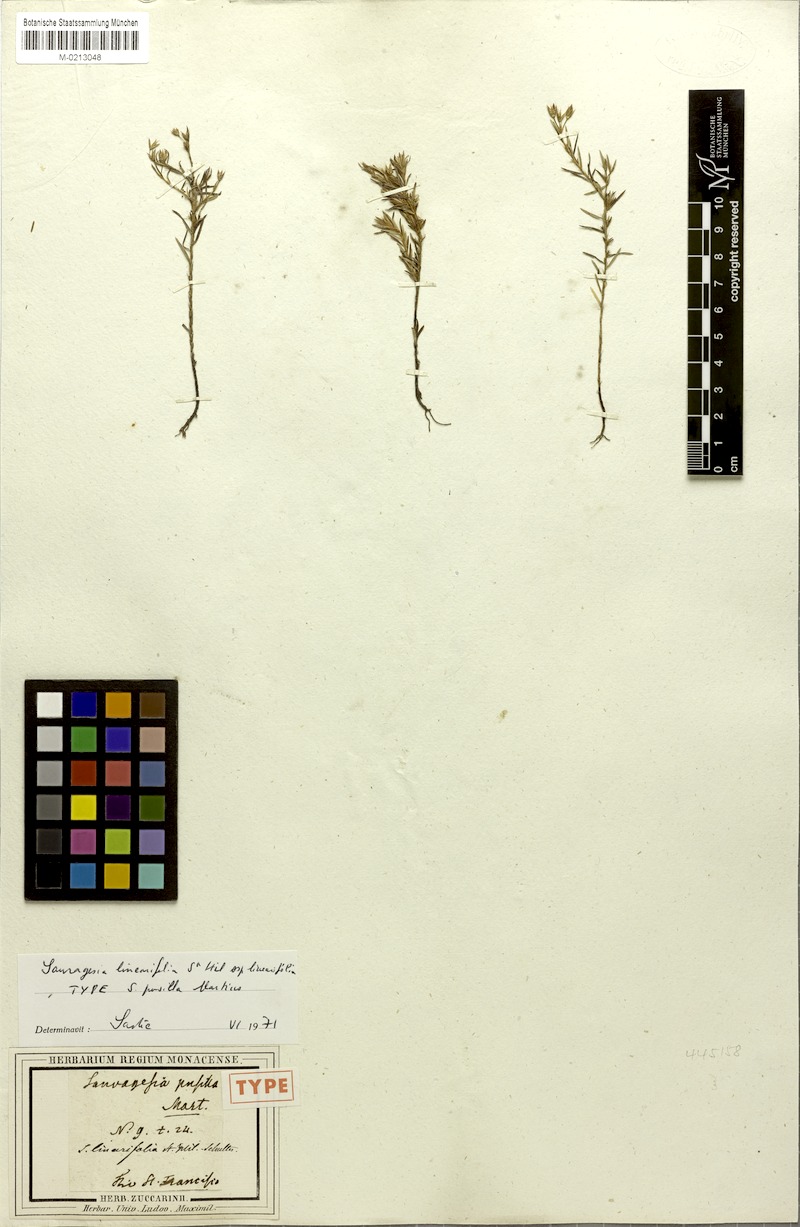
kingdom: Plantae
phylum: Tracheophyta
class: Magnoliopsida
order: Malpighiales
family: Ochnaceae
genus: Sauvagesia
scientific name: Sauvagesia linearifolia
